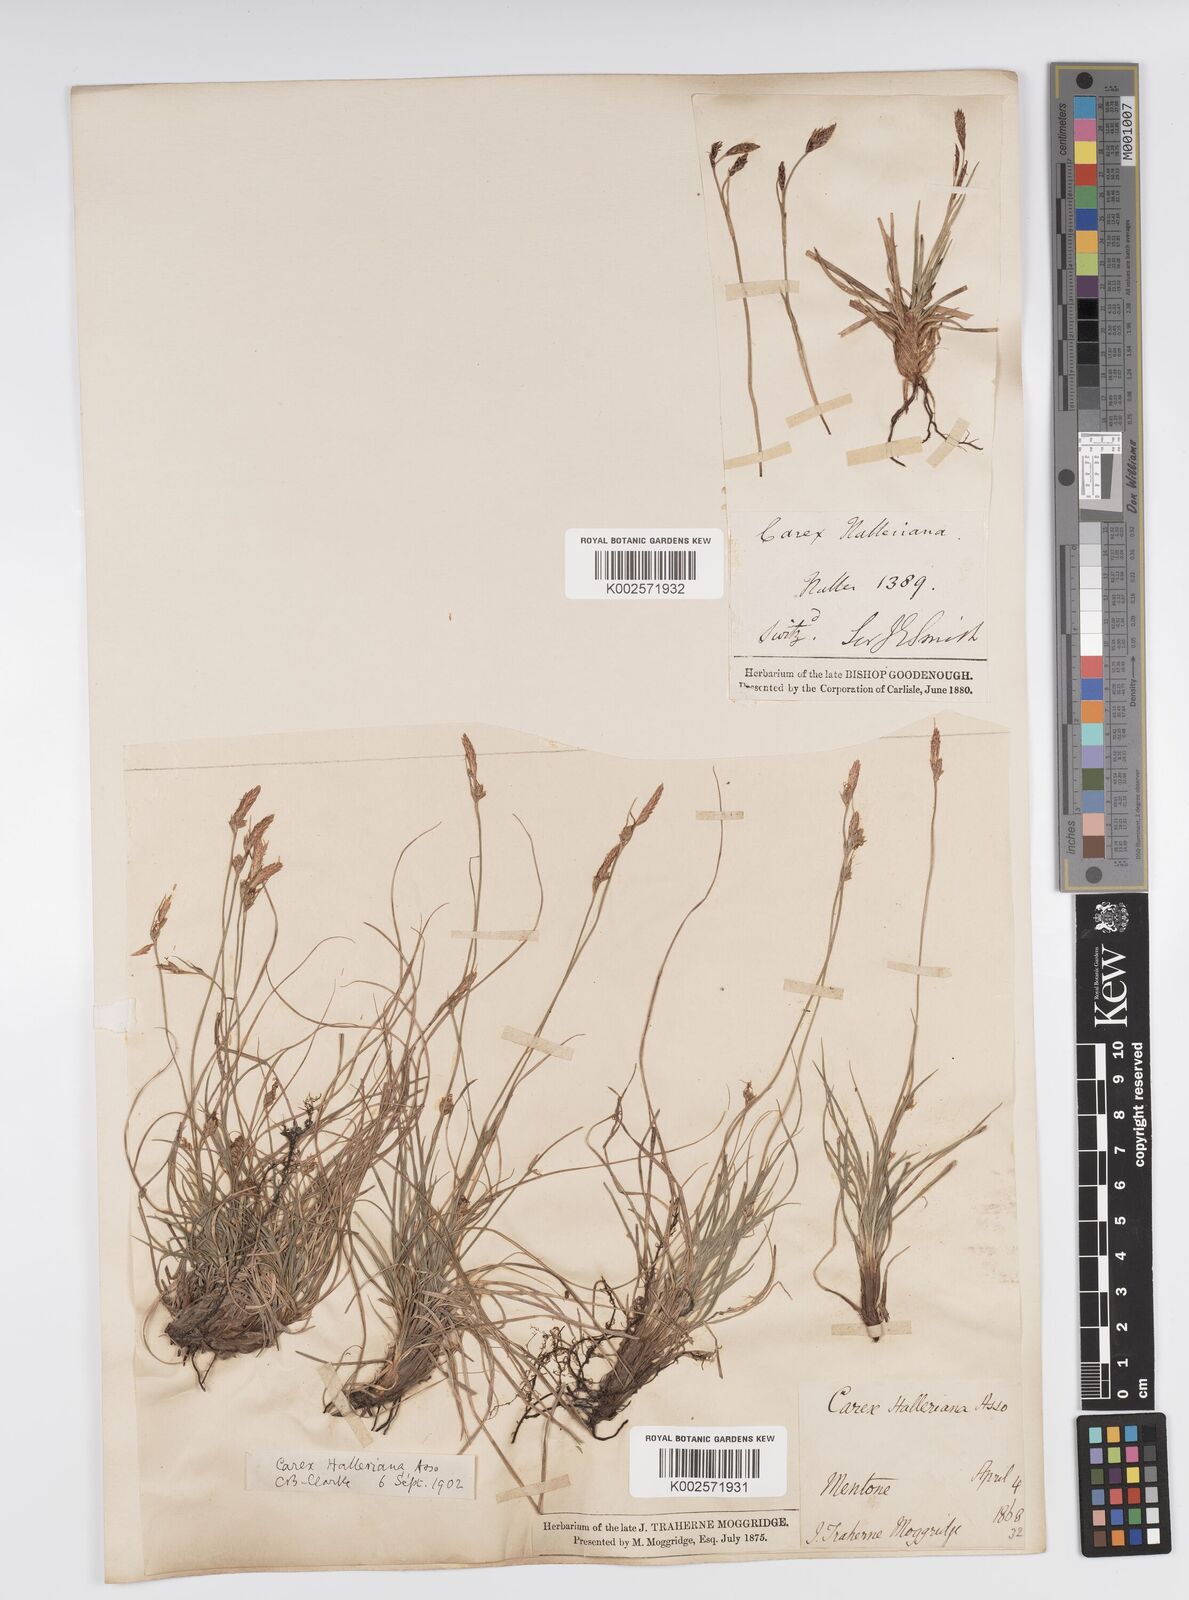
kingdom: Plantae
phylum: Tracheophyta
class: Liliopsida
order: Poales
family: Cyperaceae
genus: Carex
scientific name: Carex halleriana
